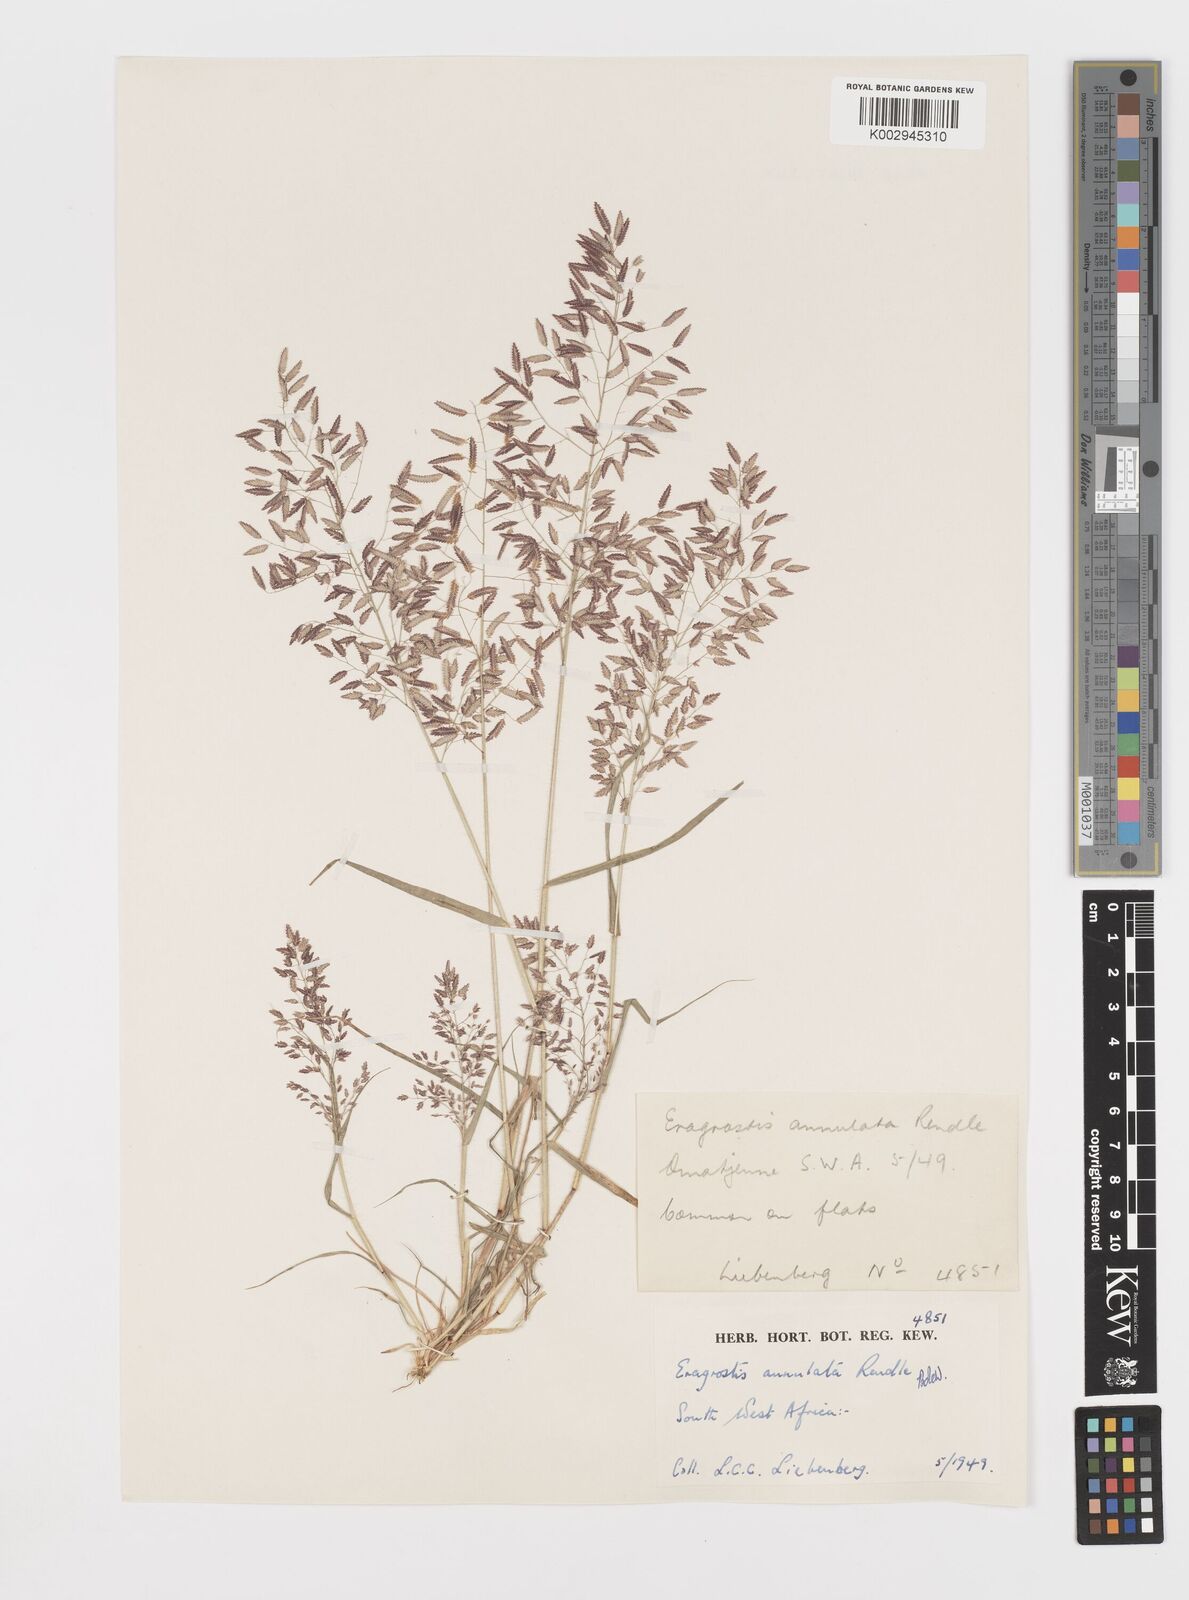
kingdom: Plantae
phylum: Tracheophyta
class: Liliopsida
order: Poales
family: Poaceae
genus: Eragrostis
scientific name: Eragrostis annulata
